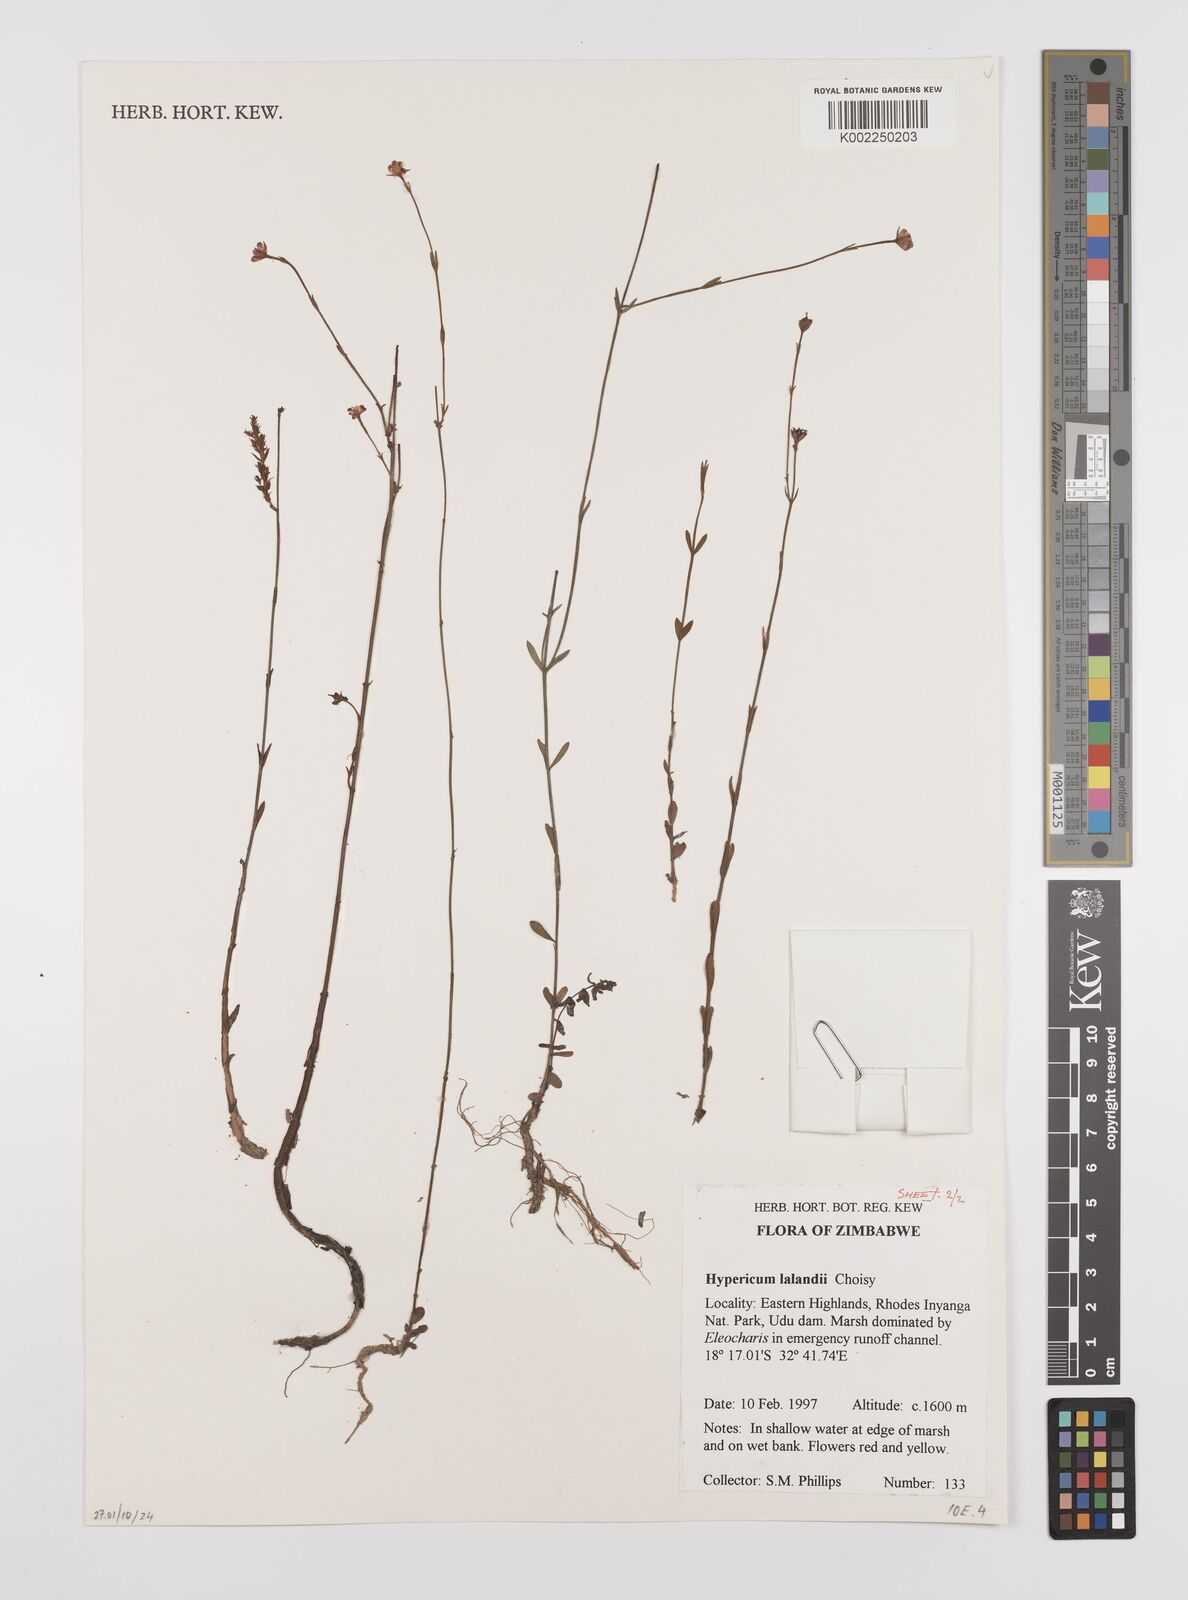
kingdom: Plantae
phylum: Tracheophyta
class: Magnoliopsida
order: Malpighiales
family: Hypericaceae
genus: Hypericum
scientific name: Hypericum lalandii
